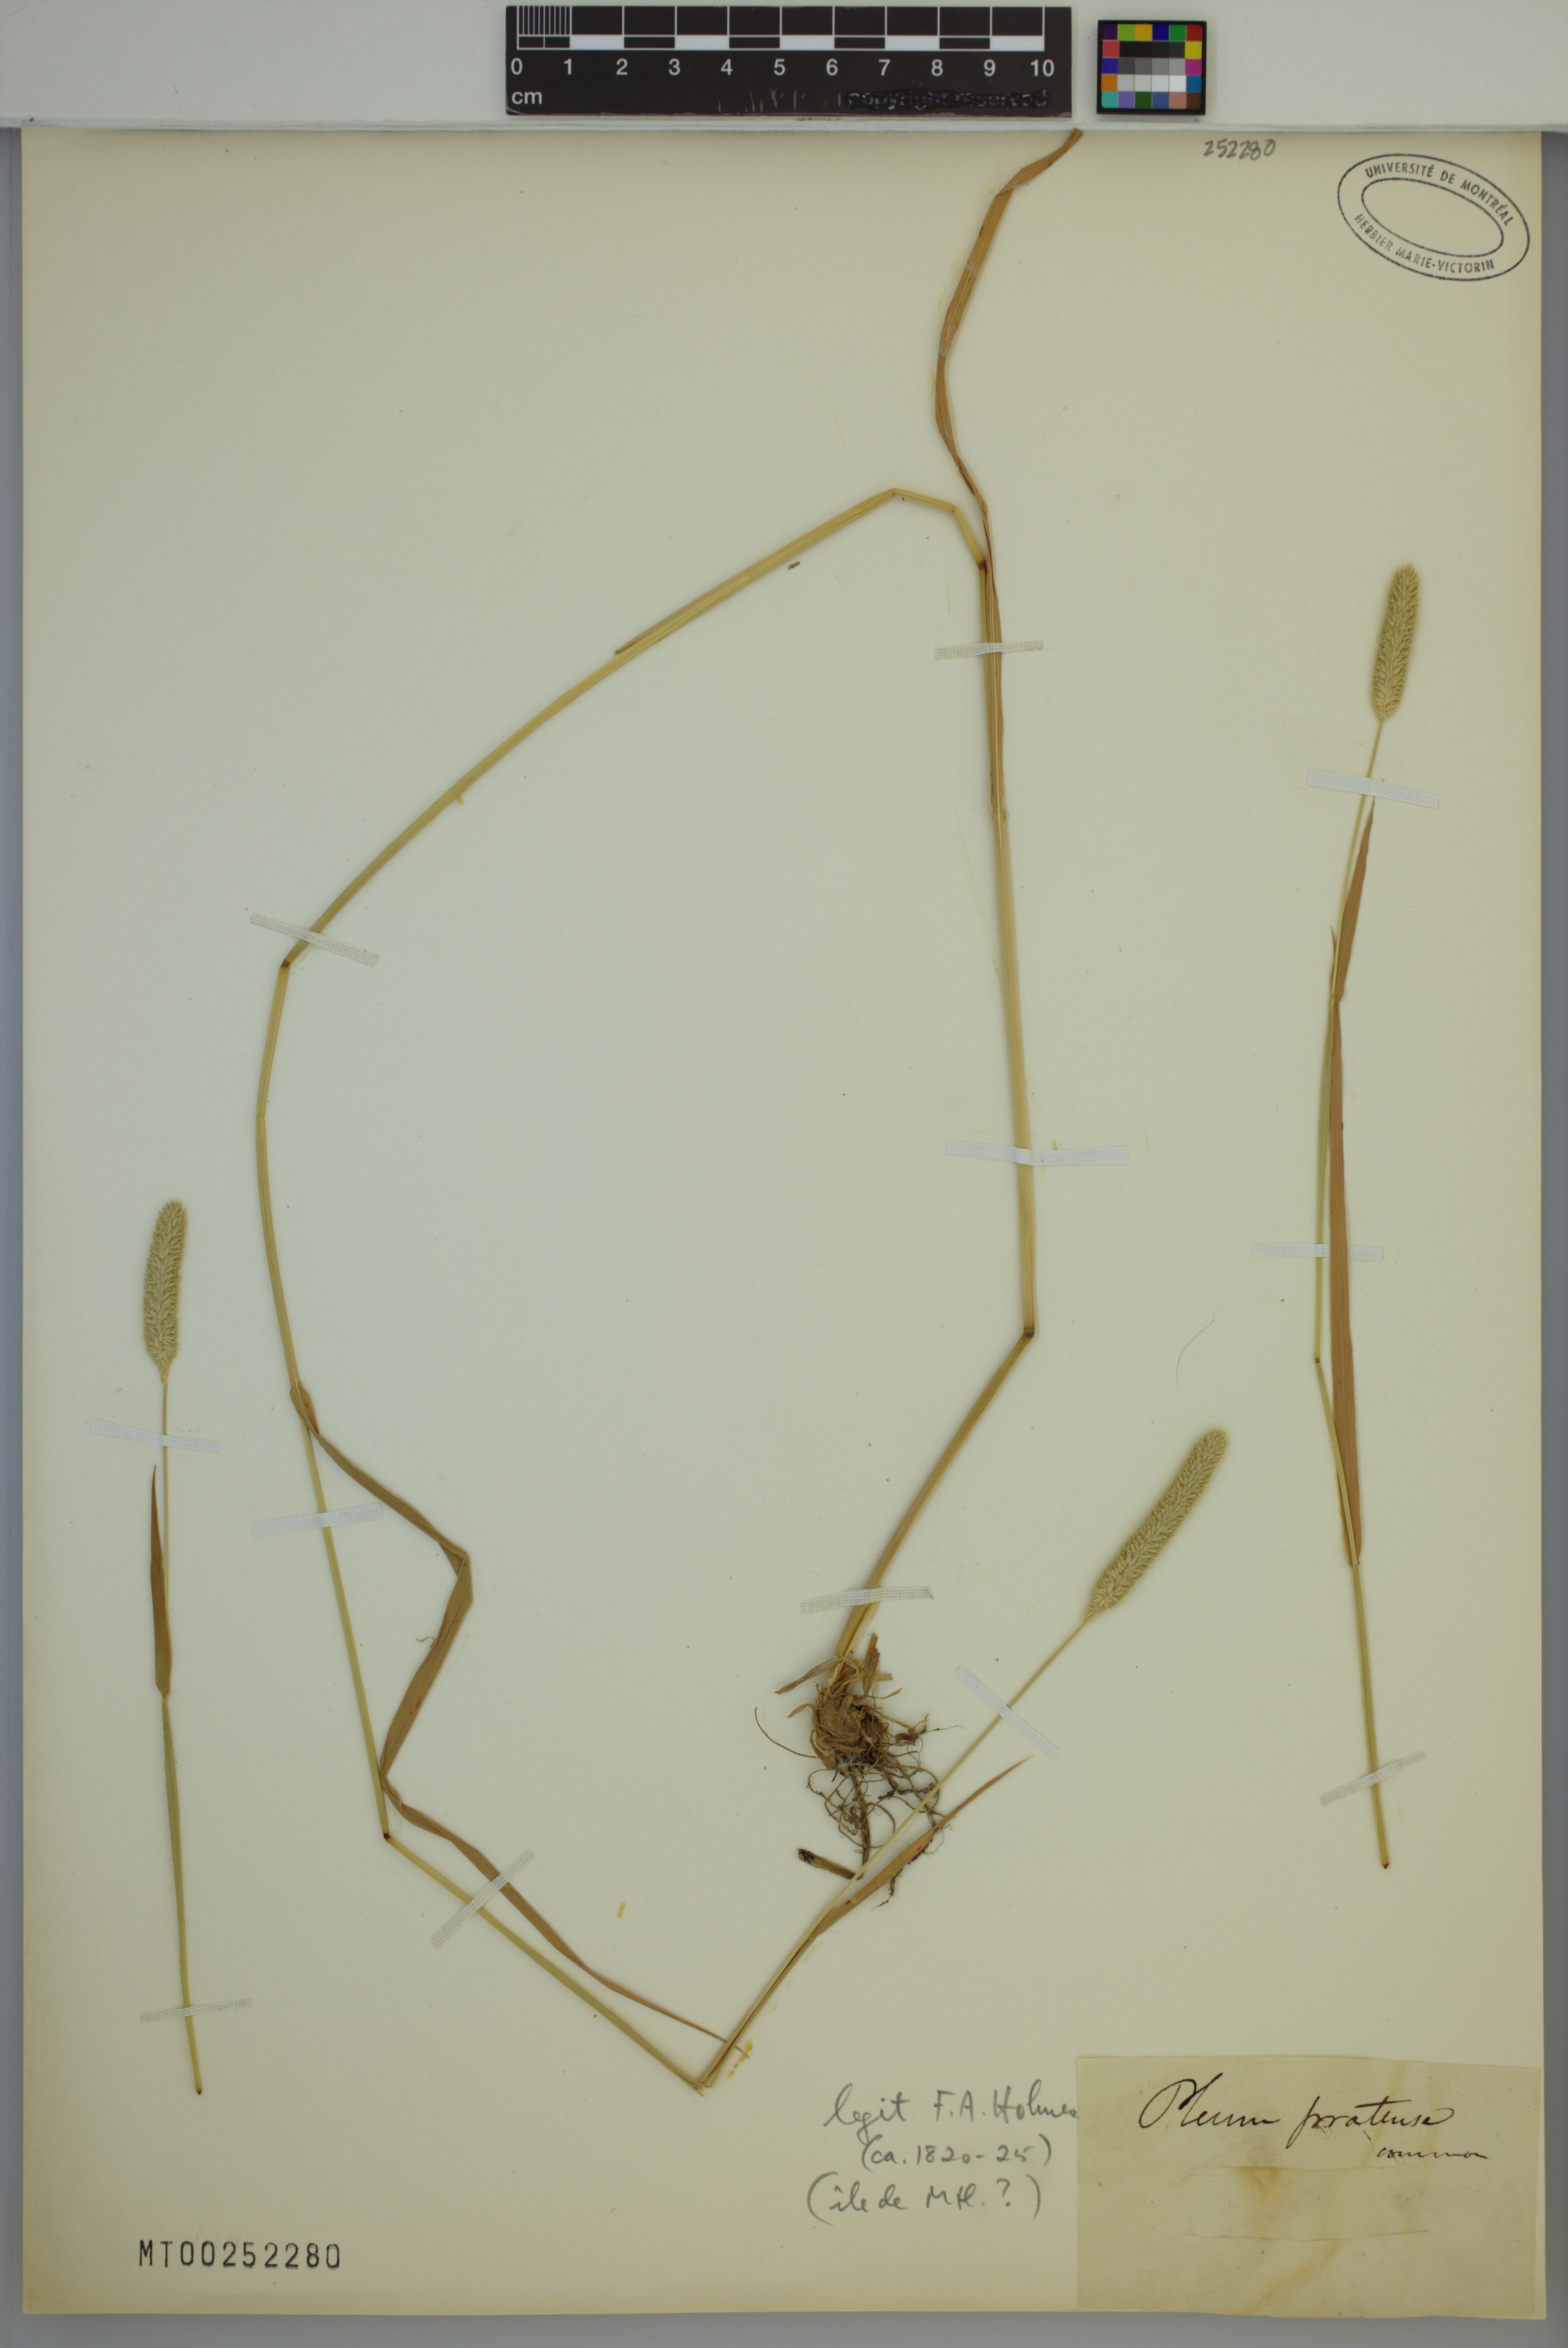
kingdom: Plantae
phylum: Tracheophyta
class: Liliopsida
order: Poales
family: Poaceae
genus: Phleum
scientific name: Phleum pratense
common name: Timothy grass
